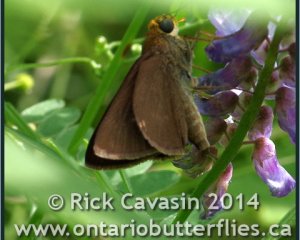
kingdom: Animalia
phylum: Arthropoda
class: Insecta
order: Lepidoptera
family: Hesperiidae
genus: Euphyes
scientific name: Euphyes vestris
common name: Dun Skipper
